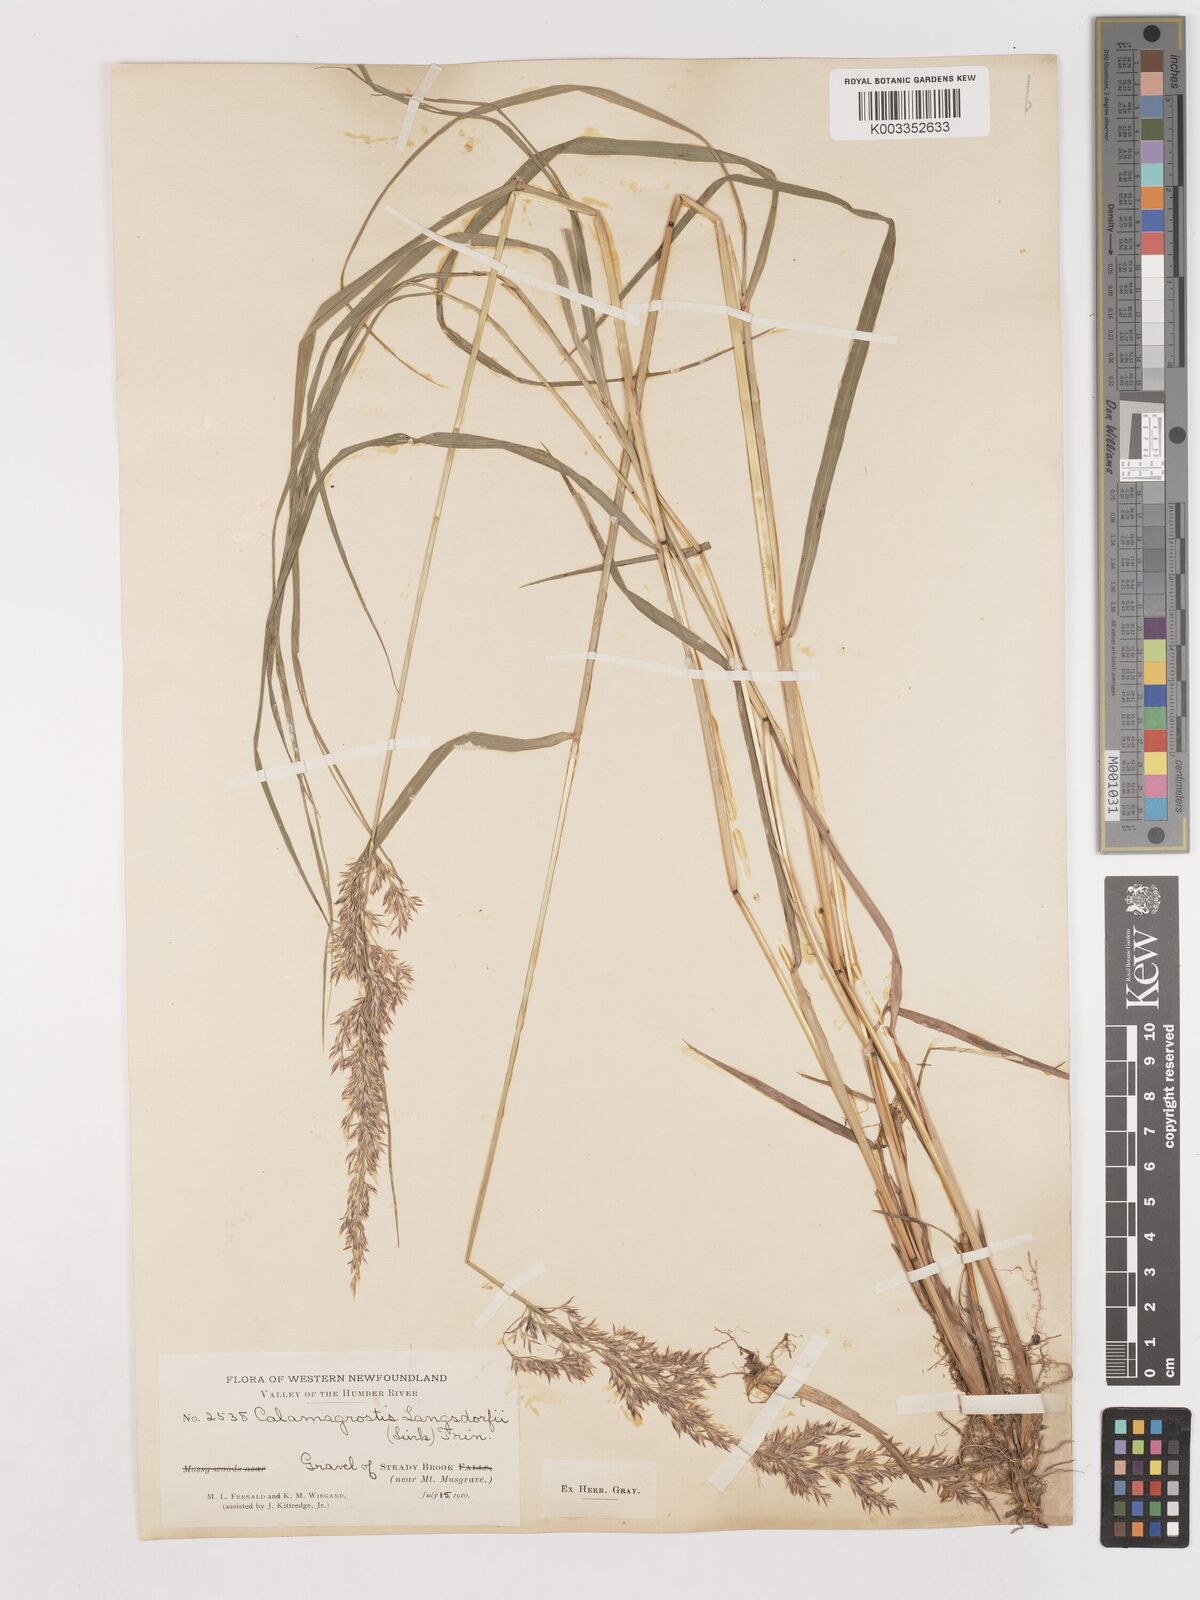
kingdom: Plantae
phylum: Tracheophyta
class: Liliopsida
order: Poales
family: Poaceae
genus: Calamagrostis
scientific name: Calamagrostis canadensis
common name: Canada bluejoint
